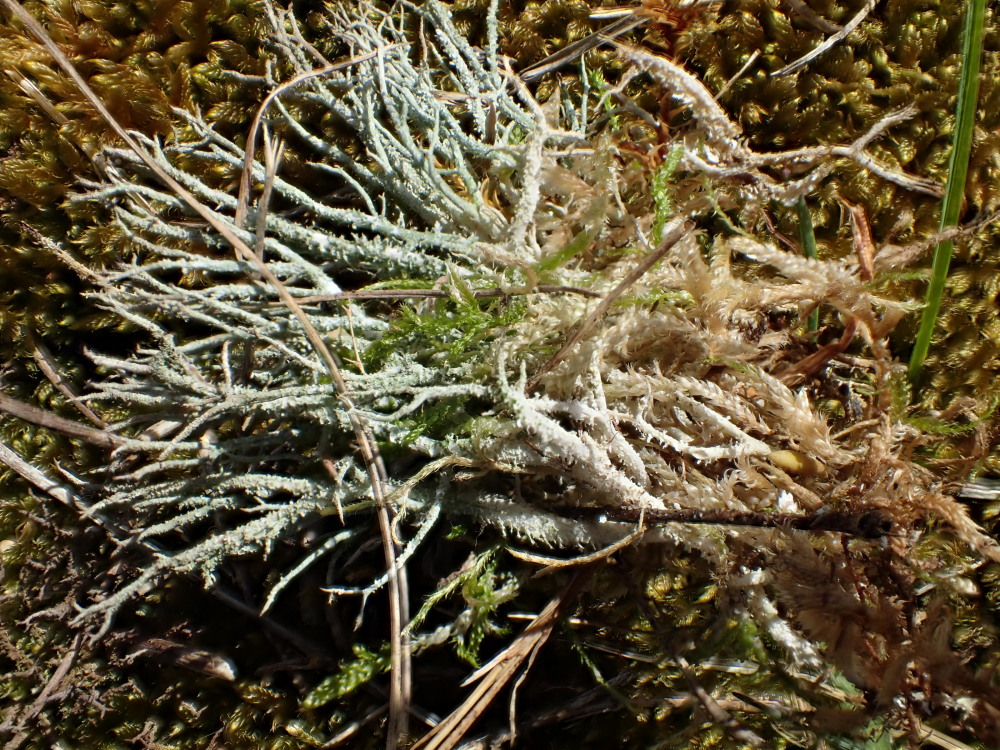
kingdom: Fungi
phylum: Ascomycota
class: Lecanoromycetes
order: Lecanorales
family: Cladoniaceae
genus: Cladonia
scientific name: Cladonia scabriuscula
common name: ru bægerlav
